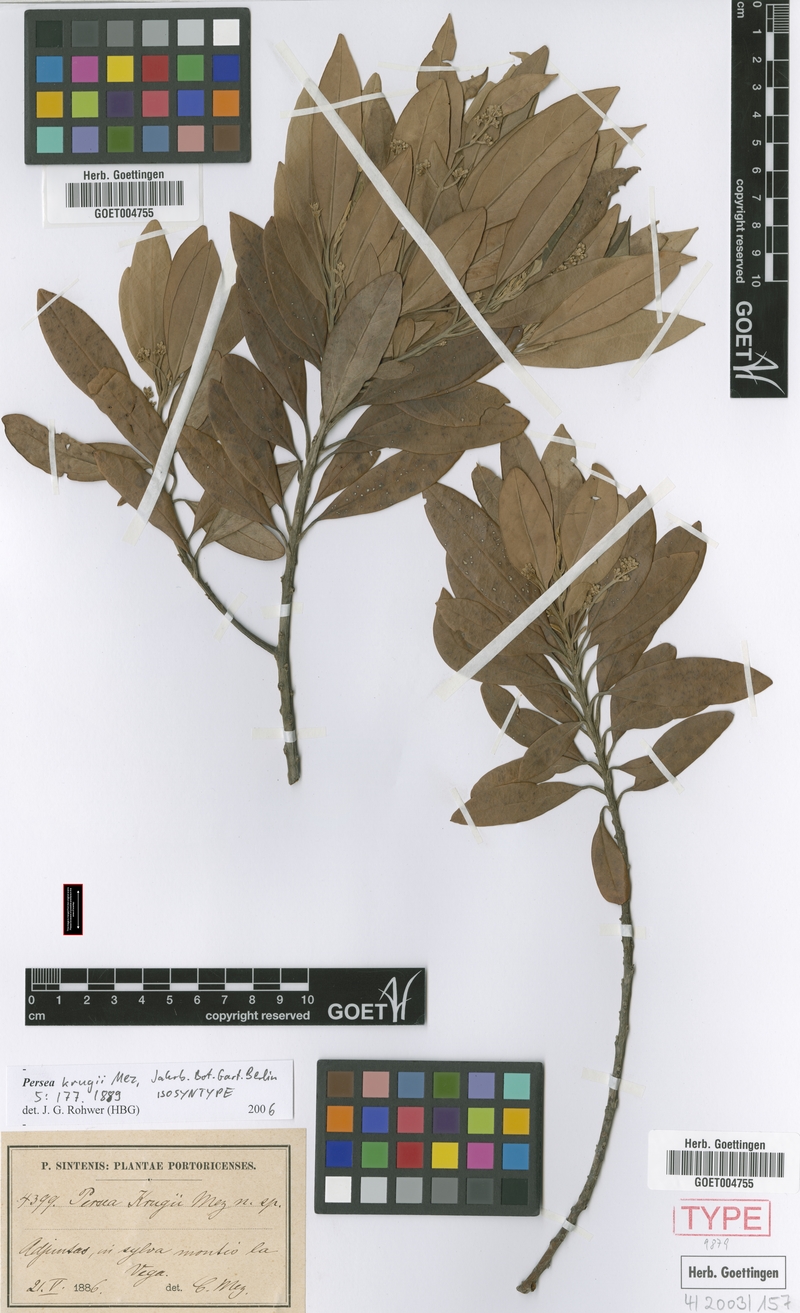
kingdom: Plantae
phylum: Tracheophyta
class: Magnoliopsida
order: Laurales
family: Lauraceae
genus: Persea
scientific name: Persea krugii
